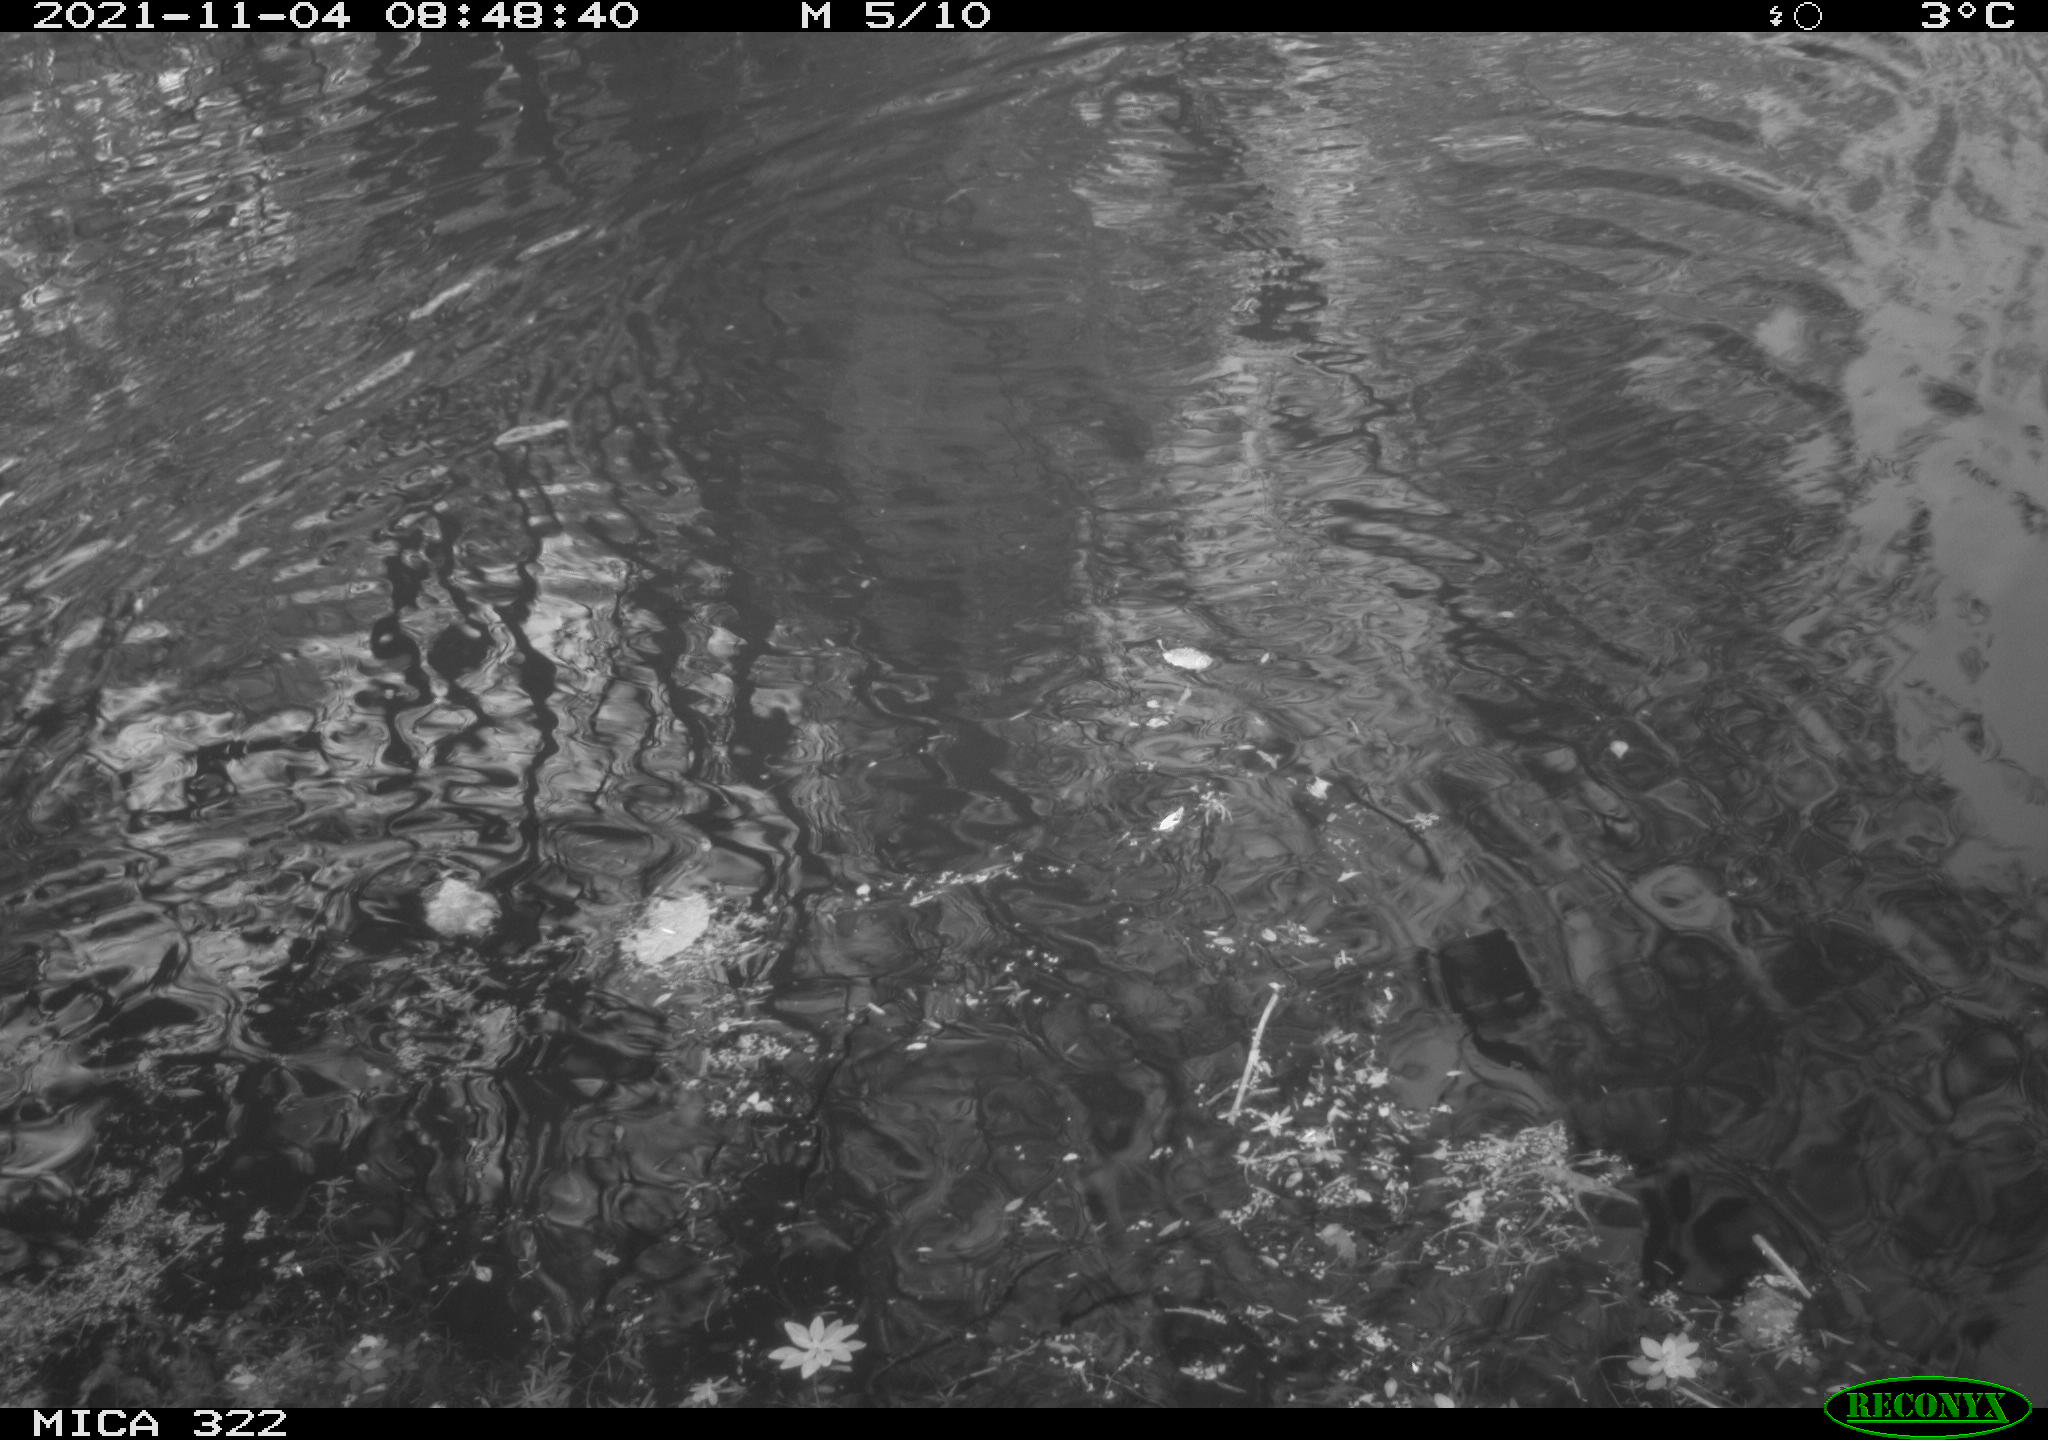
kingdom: Animalia
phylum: Chordata
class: Aves
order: Gruiformes
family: Rallidae
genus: Gallinula
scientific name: Gallinula chloropus
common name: Common moorhen
